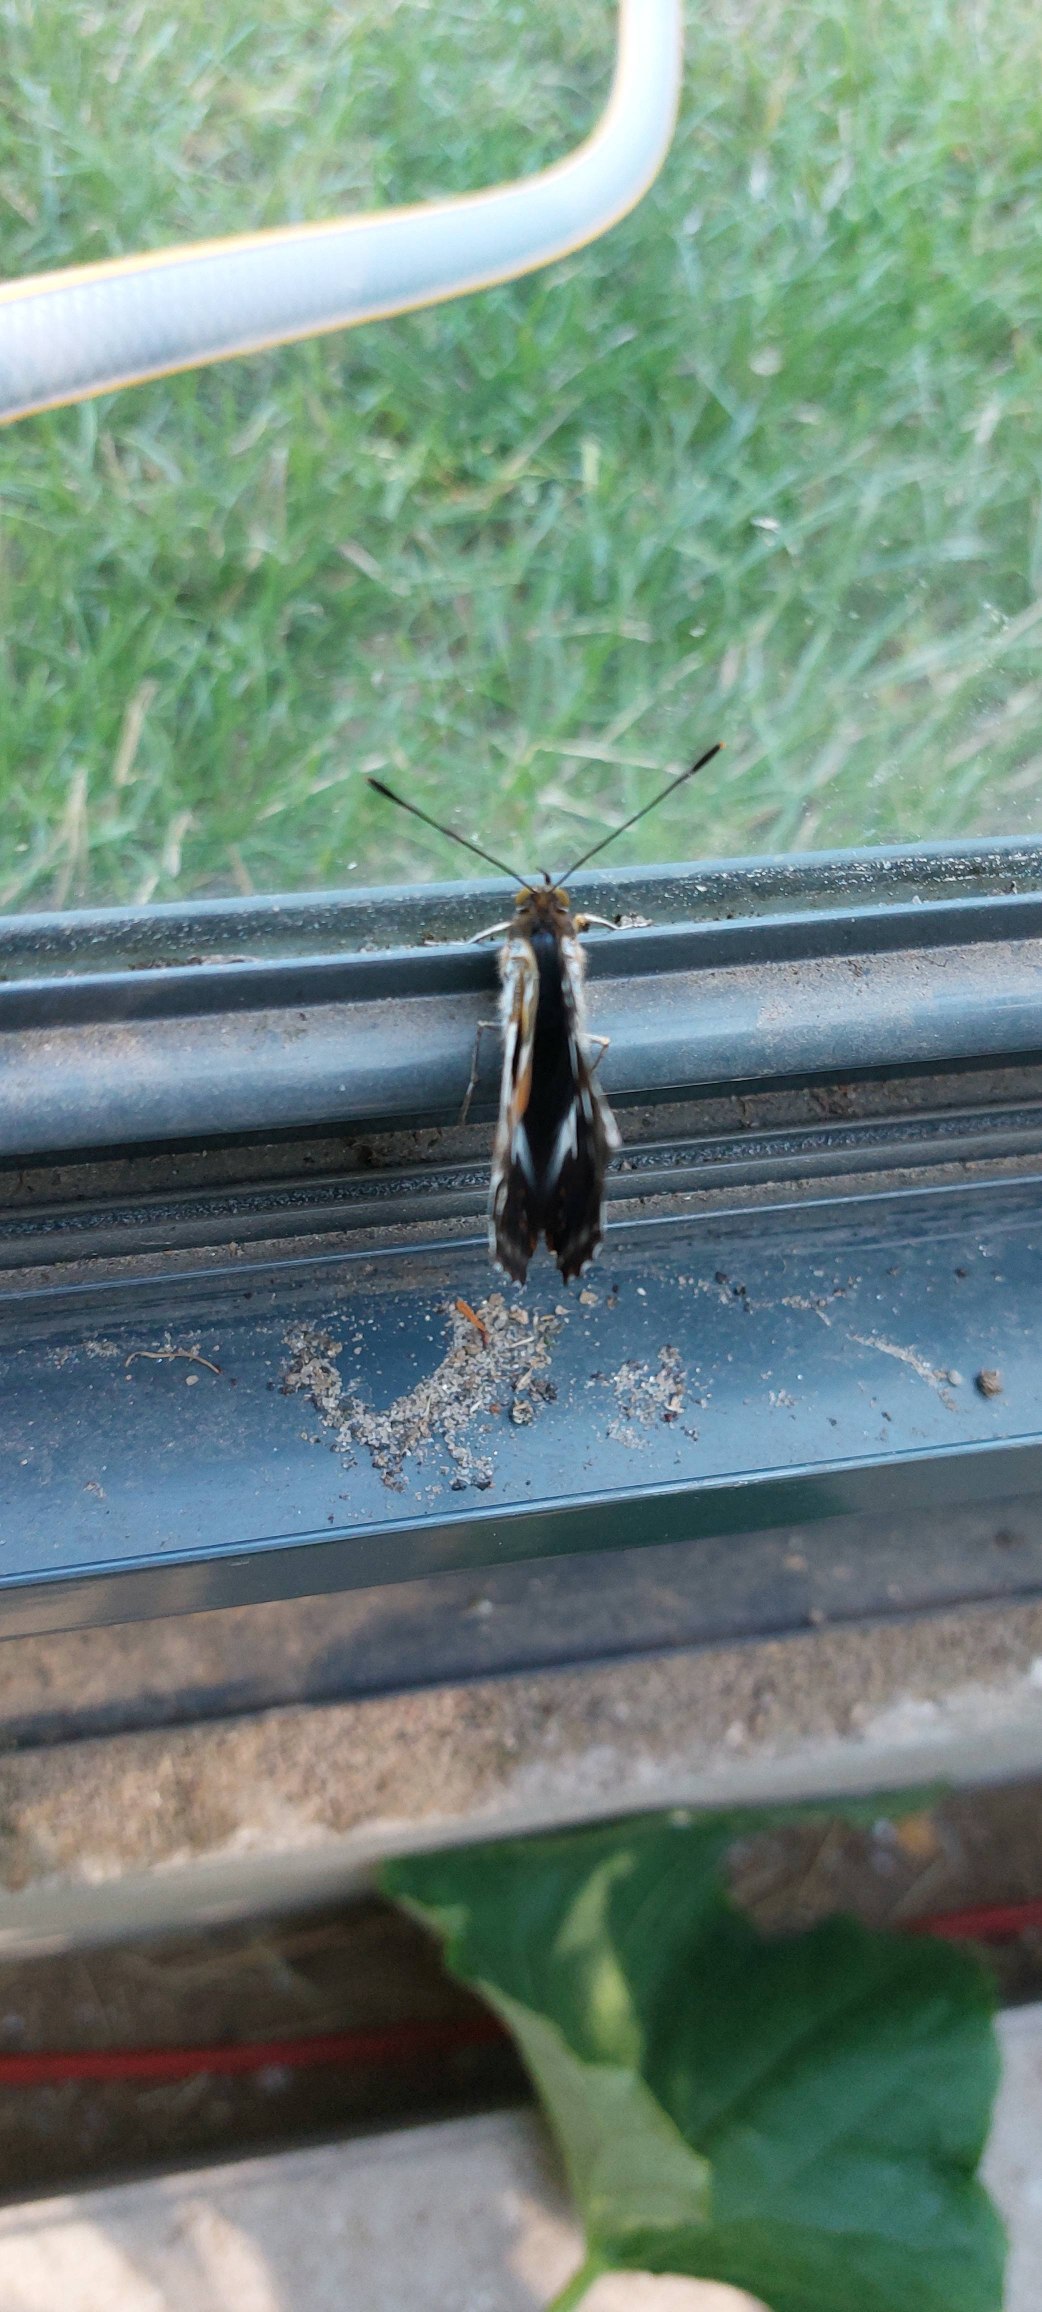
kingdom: Animalia
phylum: Arthropoda
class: Insecta
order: Lepidoptera
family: Nymphalidae
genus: Apatura
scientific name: Apatura iris
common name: Iris
